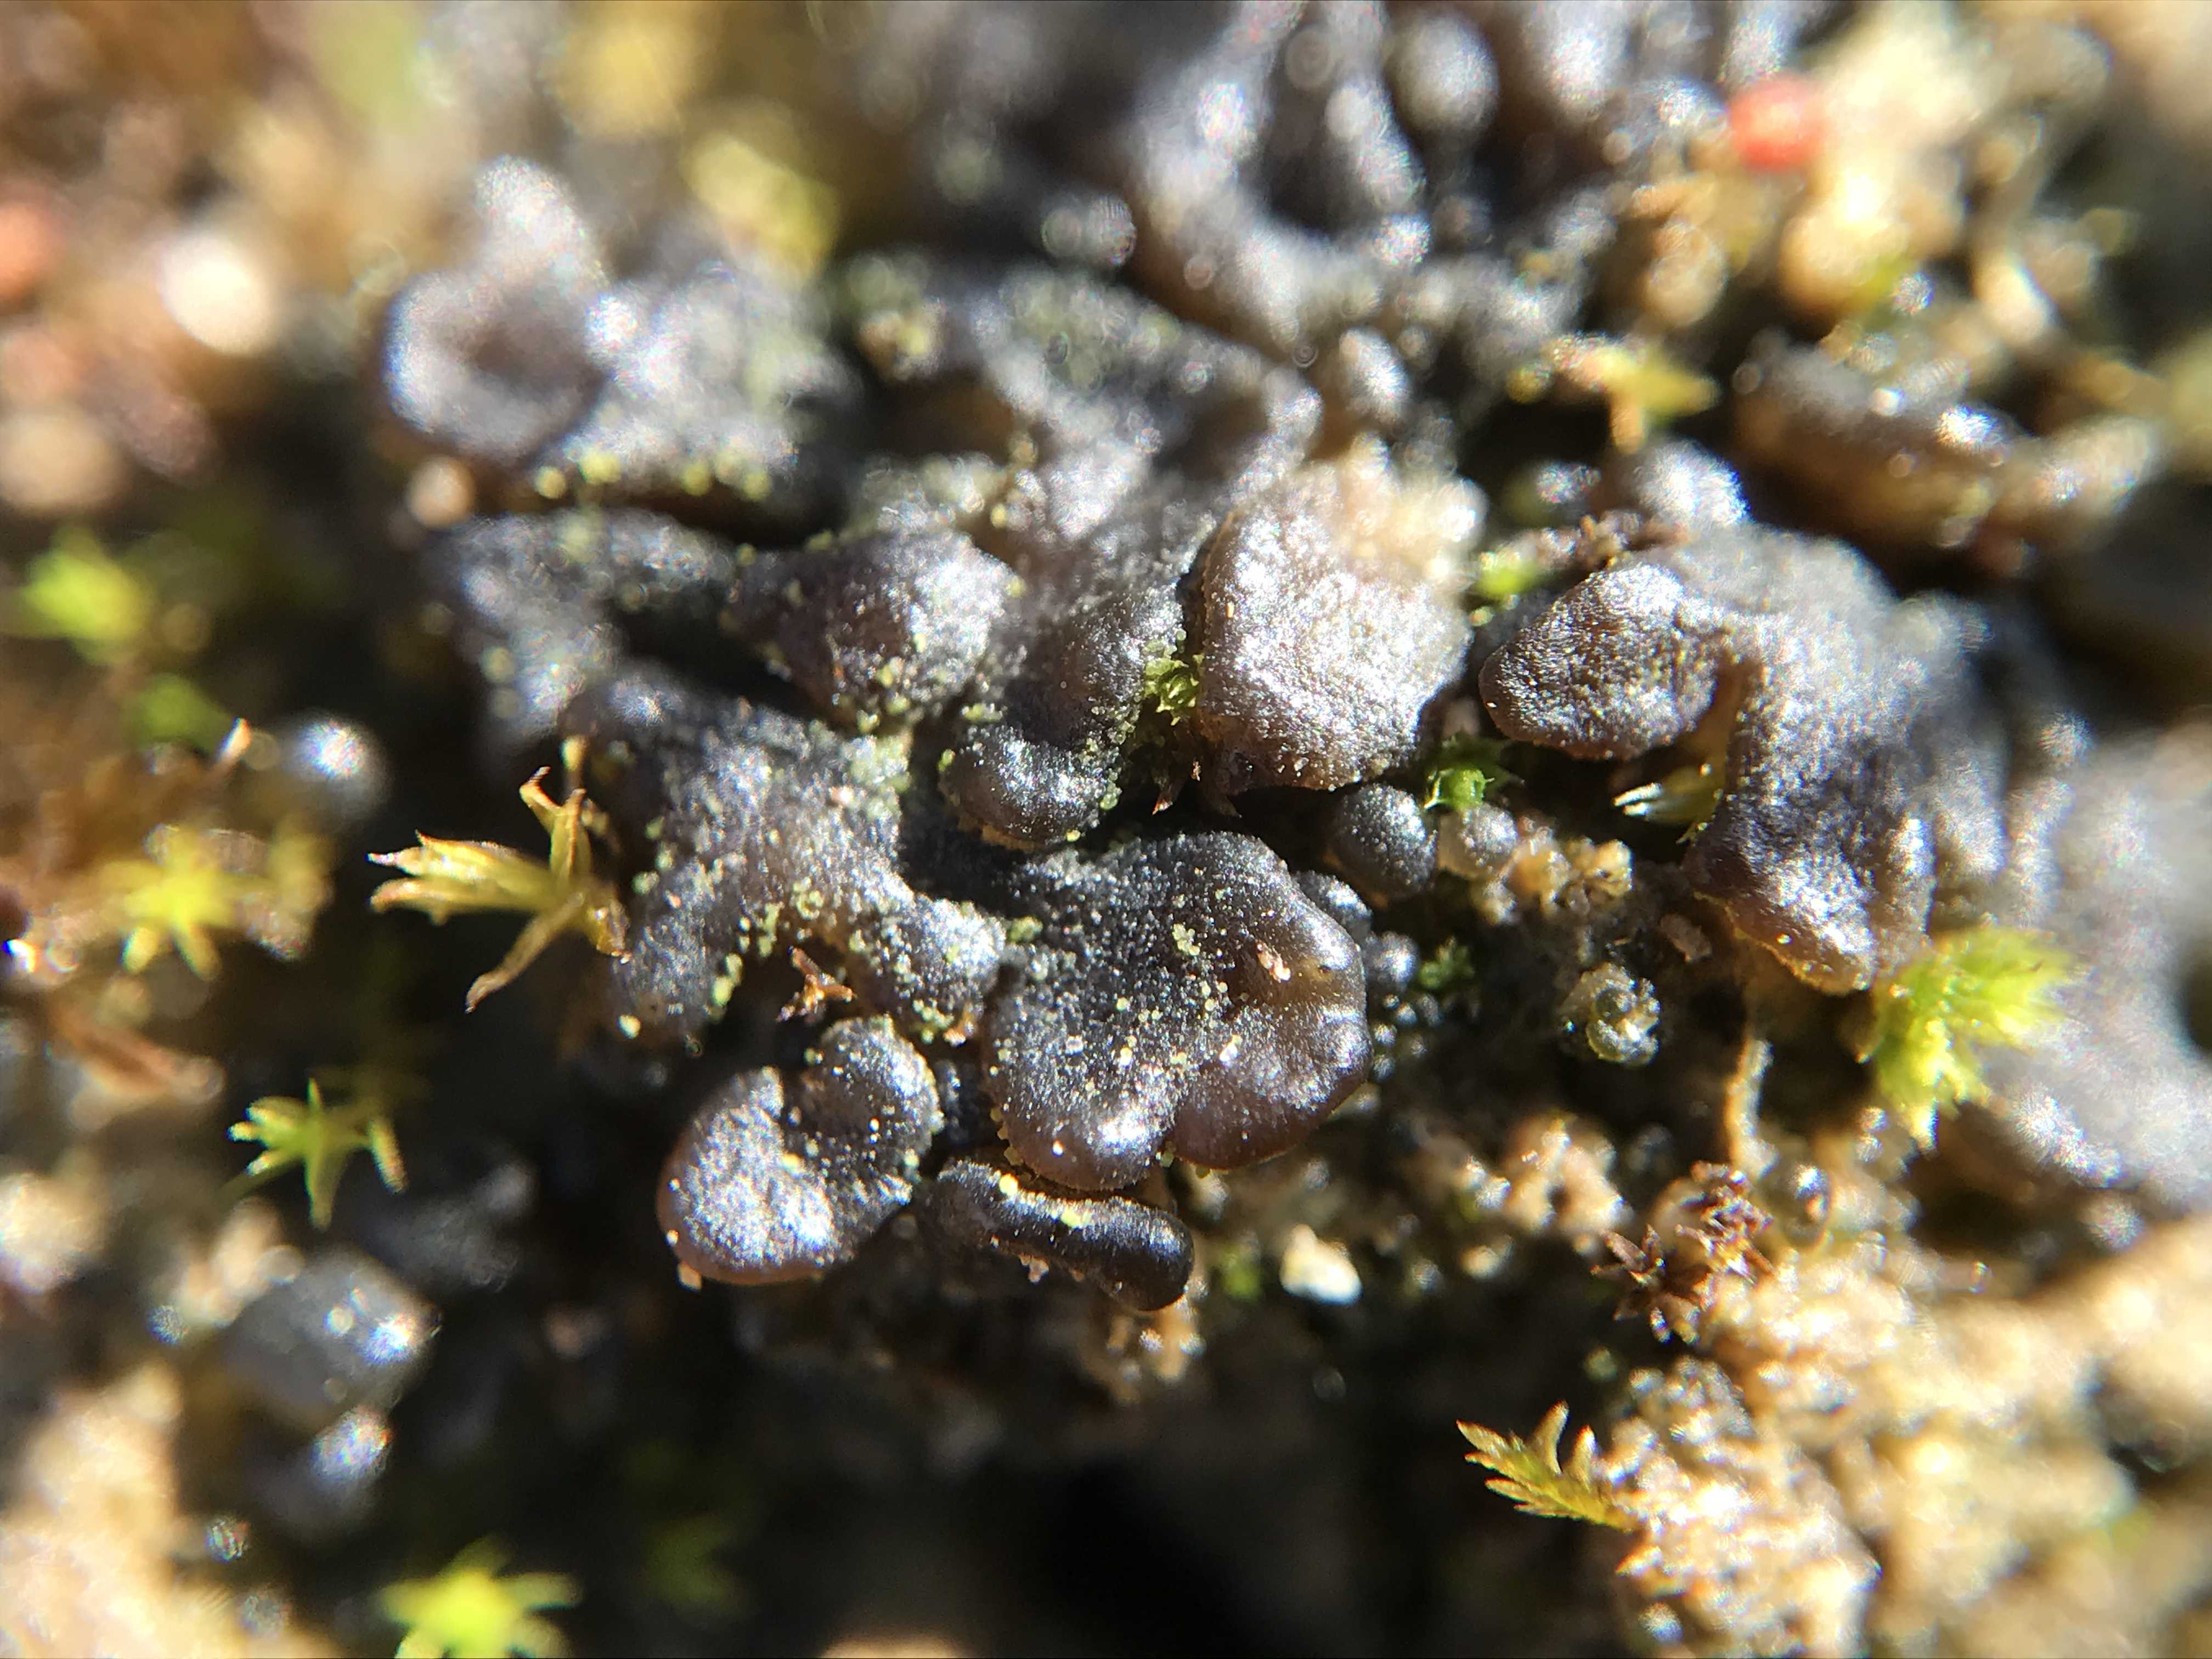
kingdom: Fungi
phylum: Ascomycota
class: Lecanoromycetes
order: Peltigerales
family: Collemataceae
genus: Enchylium
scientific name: Enchylium tenax
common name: tyk bævrelav
